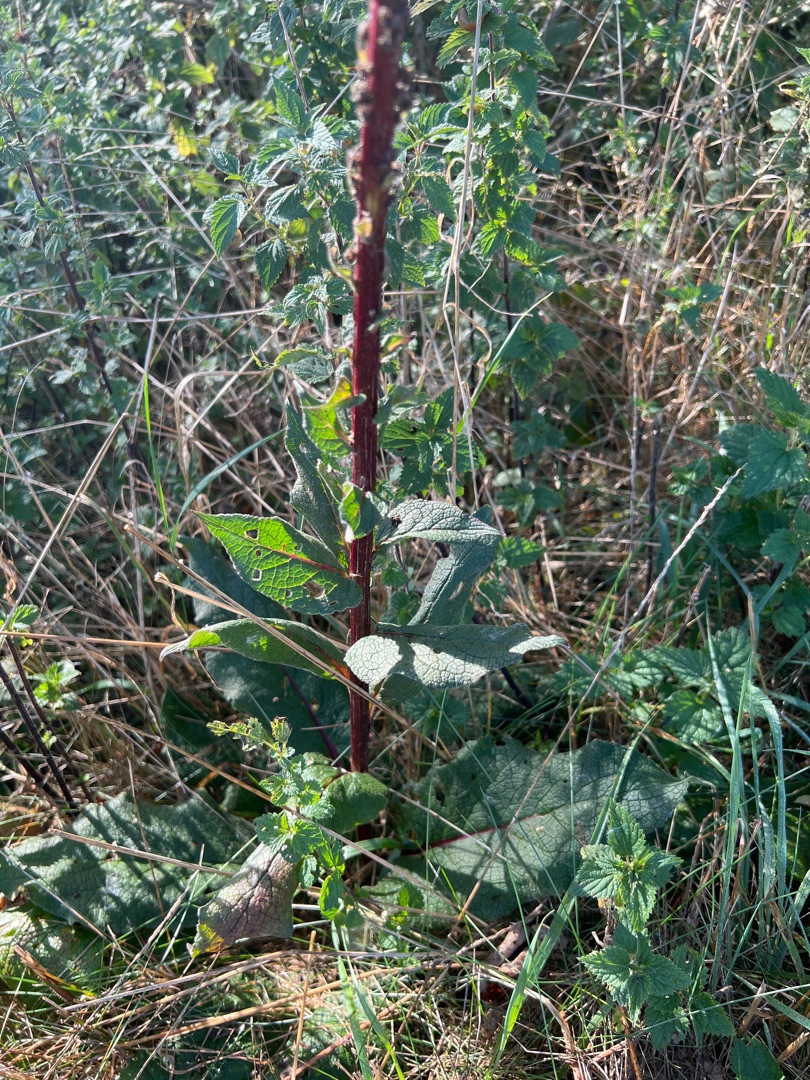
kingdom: Plantae
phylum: Tracheophyta
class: Magnoliopsida
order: Lamiales
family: Scrophulariaceae
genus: Verbascum
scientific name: Verbascum nigrum
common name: Mørk kongelys
